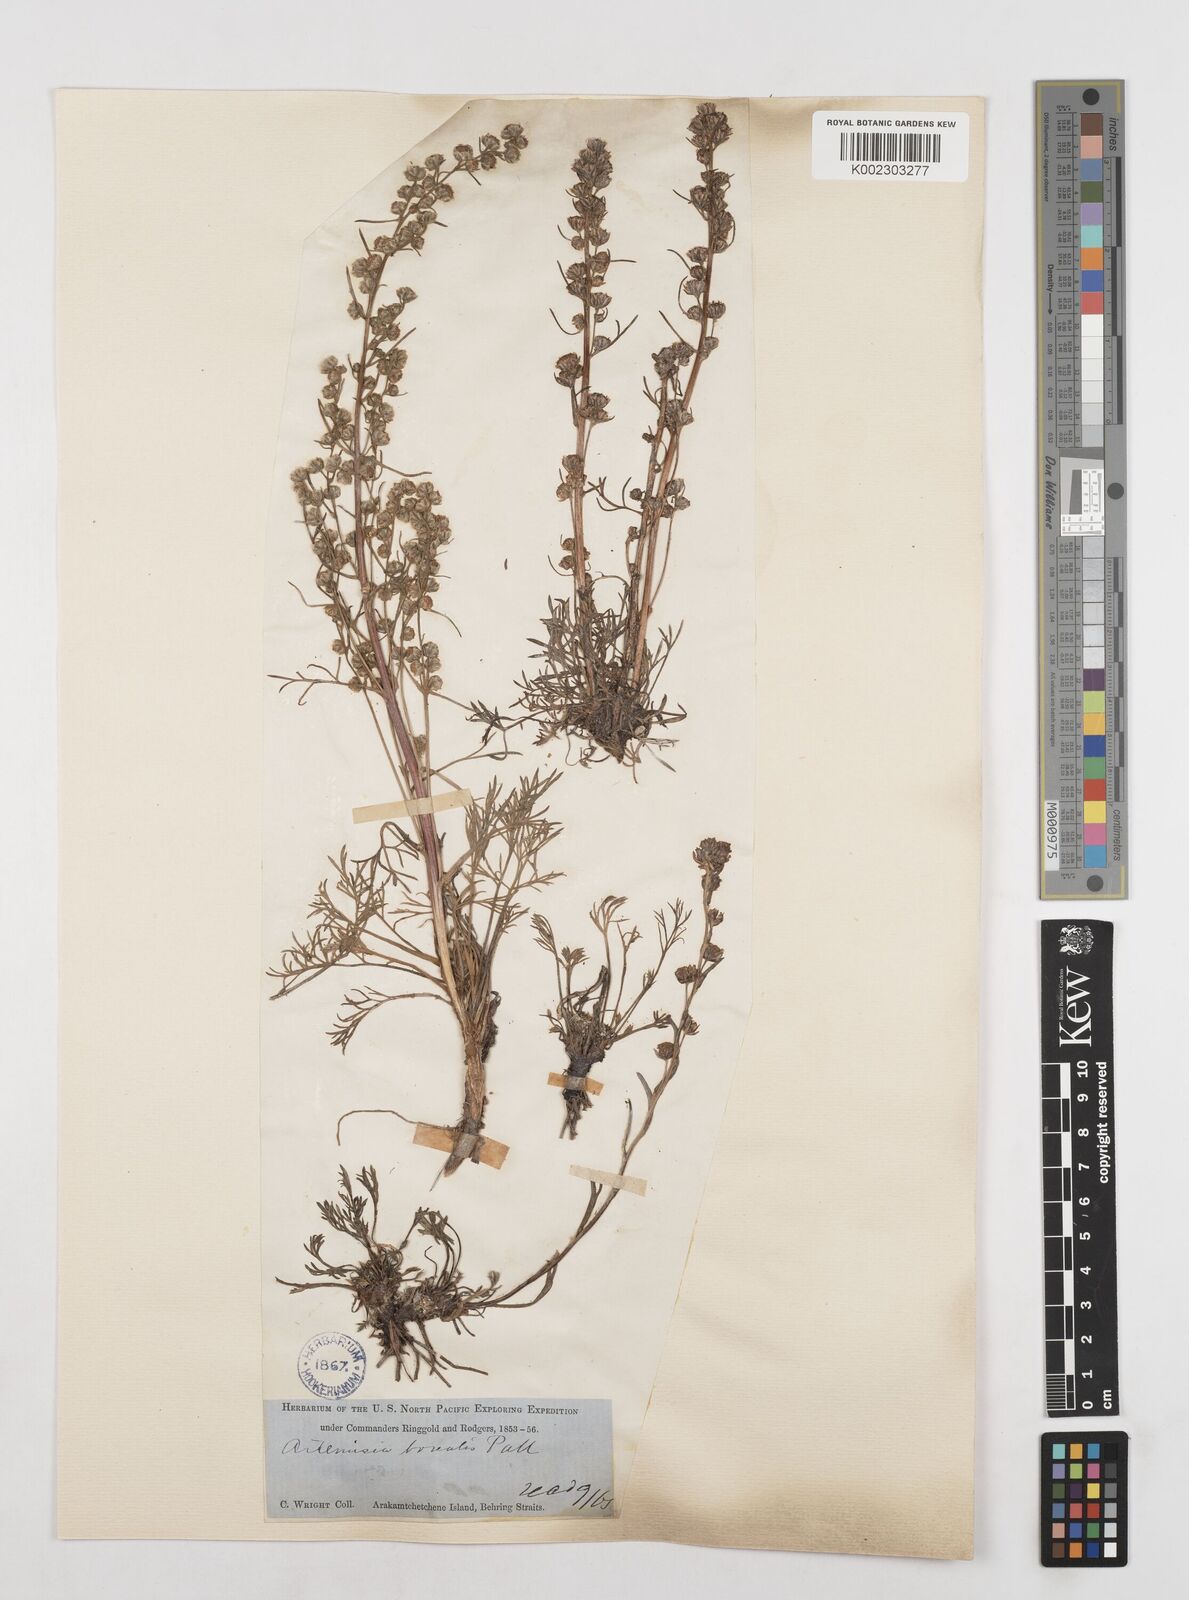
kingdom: Plantae
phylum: Tracheophyta
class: Magnoliopsida
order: Asterales
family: Asteraceae
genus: Artemisia
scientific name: Artemisia borealis
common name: Boreal sage
